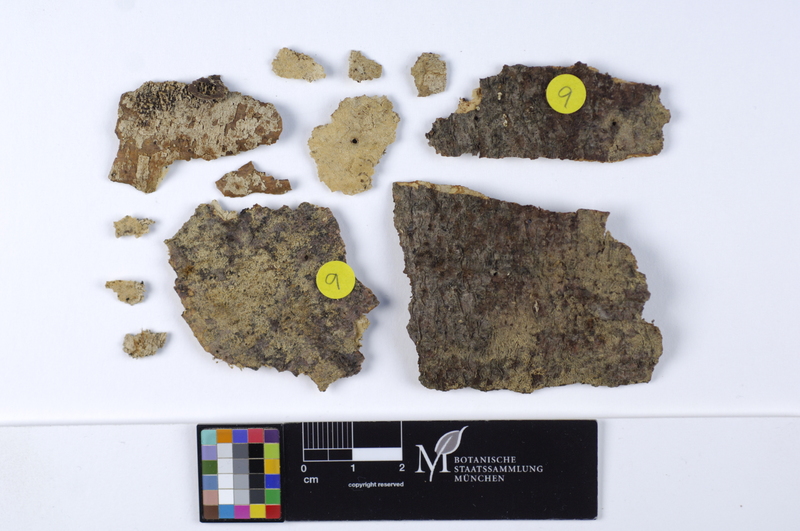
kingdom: Fungi
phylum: Basidiomycota
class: Agaricomycetes
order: Cantharellales
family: Botryobasidiaceae
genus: Botryobasidium
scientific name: Botryobasidium laeve
